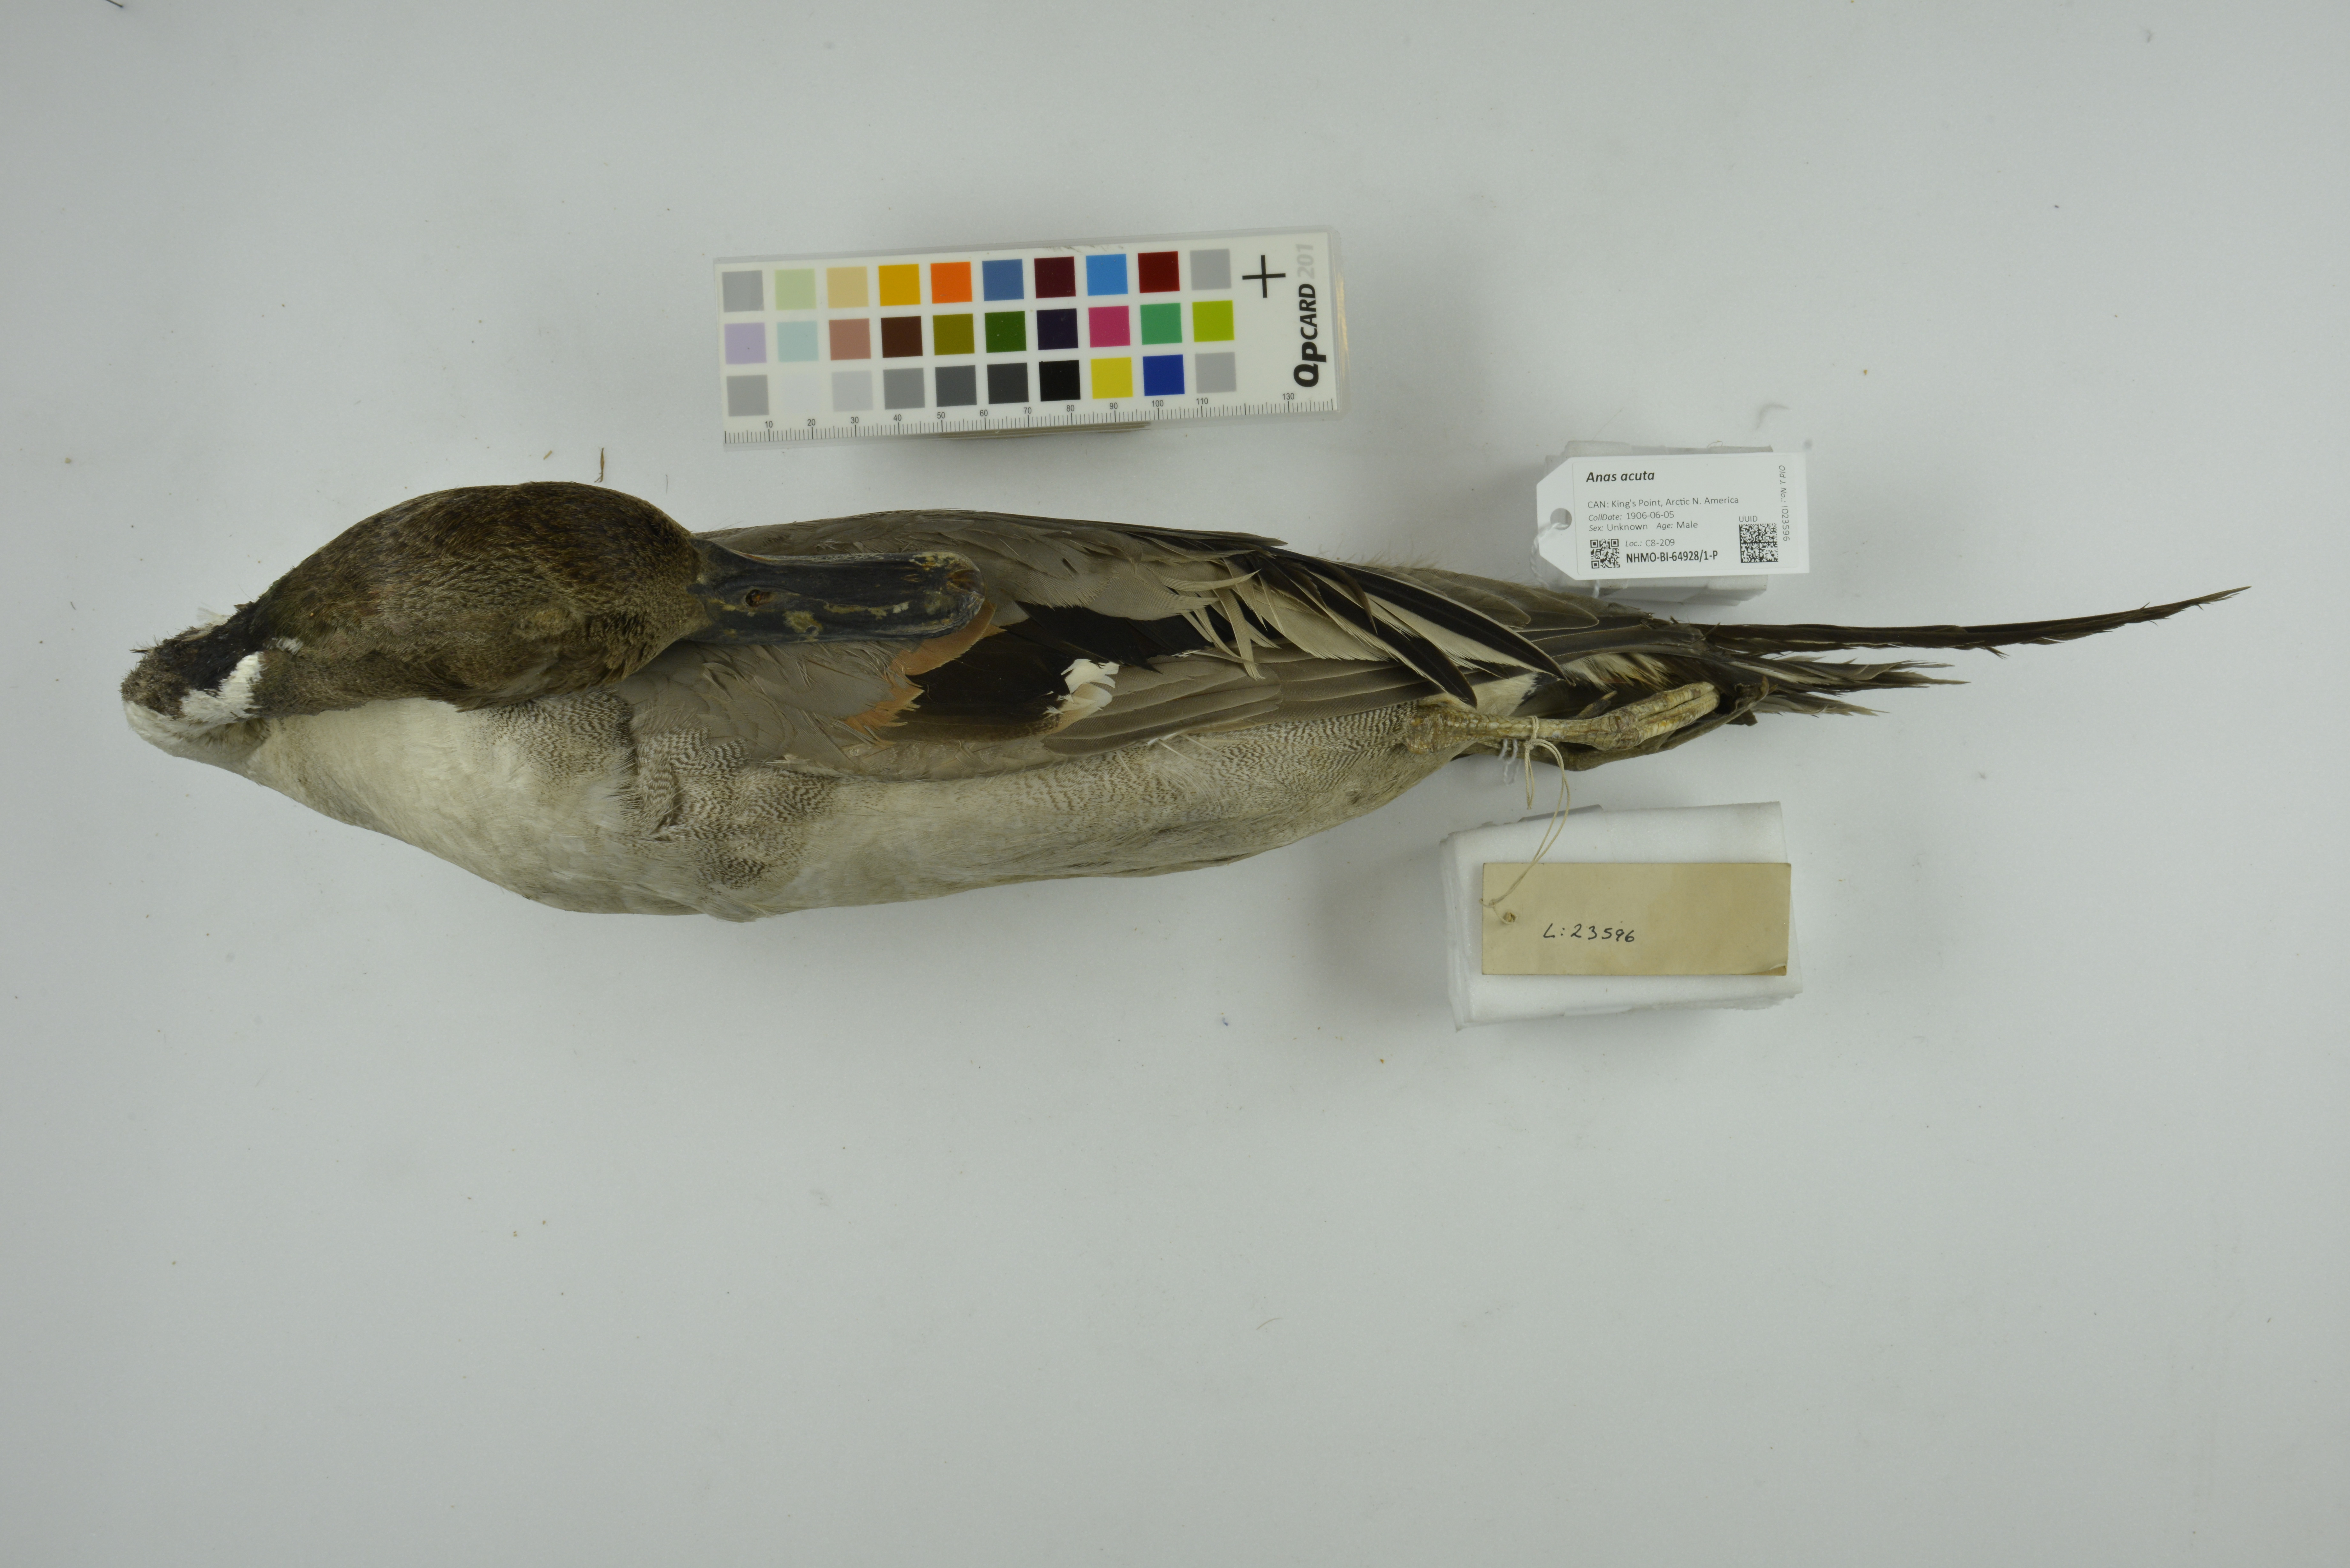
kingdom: Animalia
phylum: Chordata
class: Aves
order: Anseriformes
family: Anatidae
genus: Anas
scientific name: Anas acuta
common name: Northern pintail
